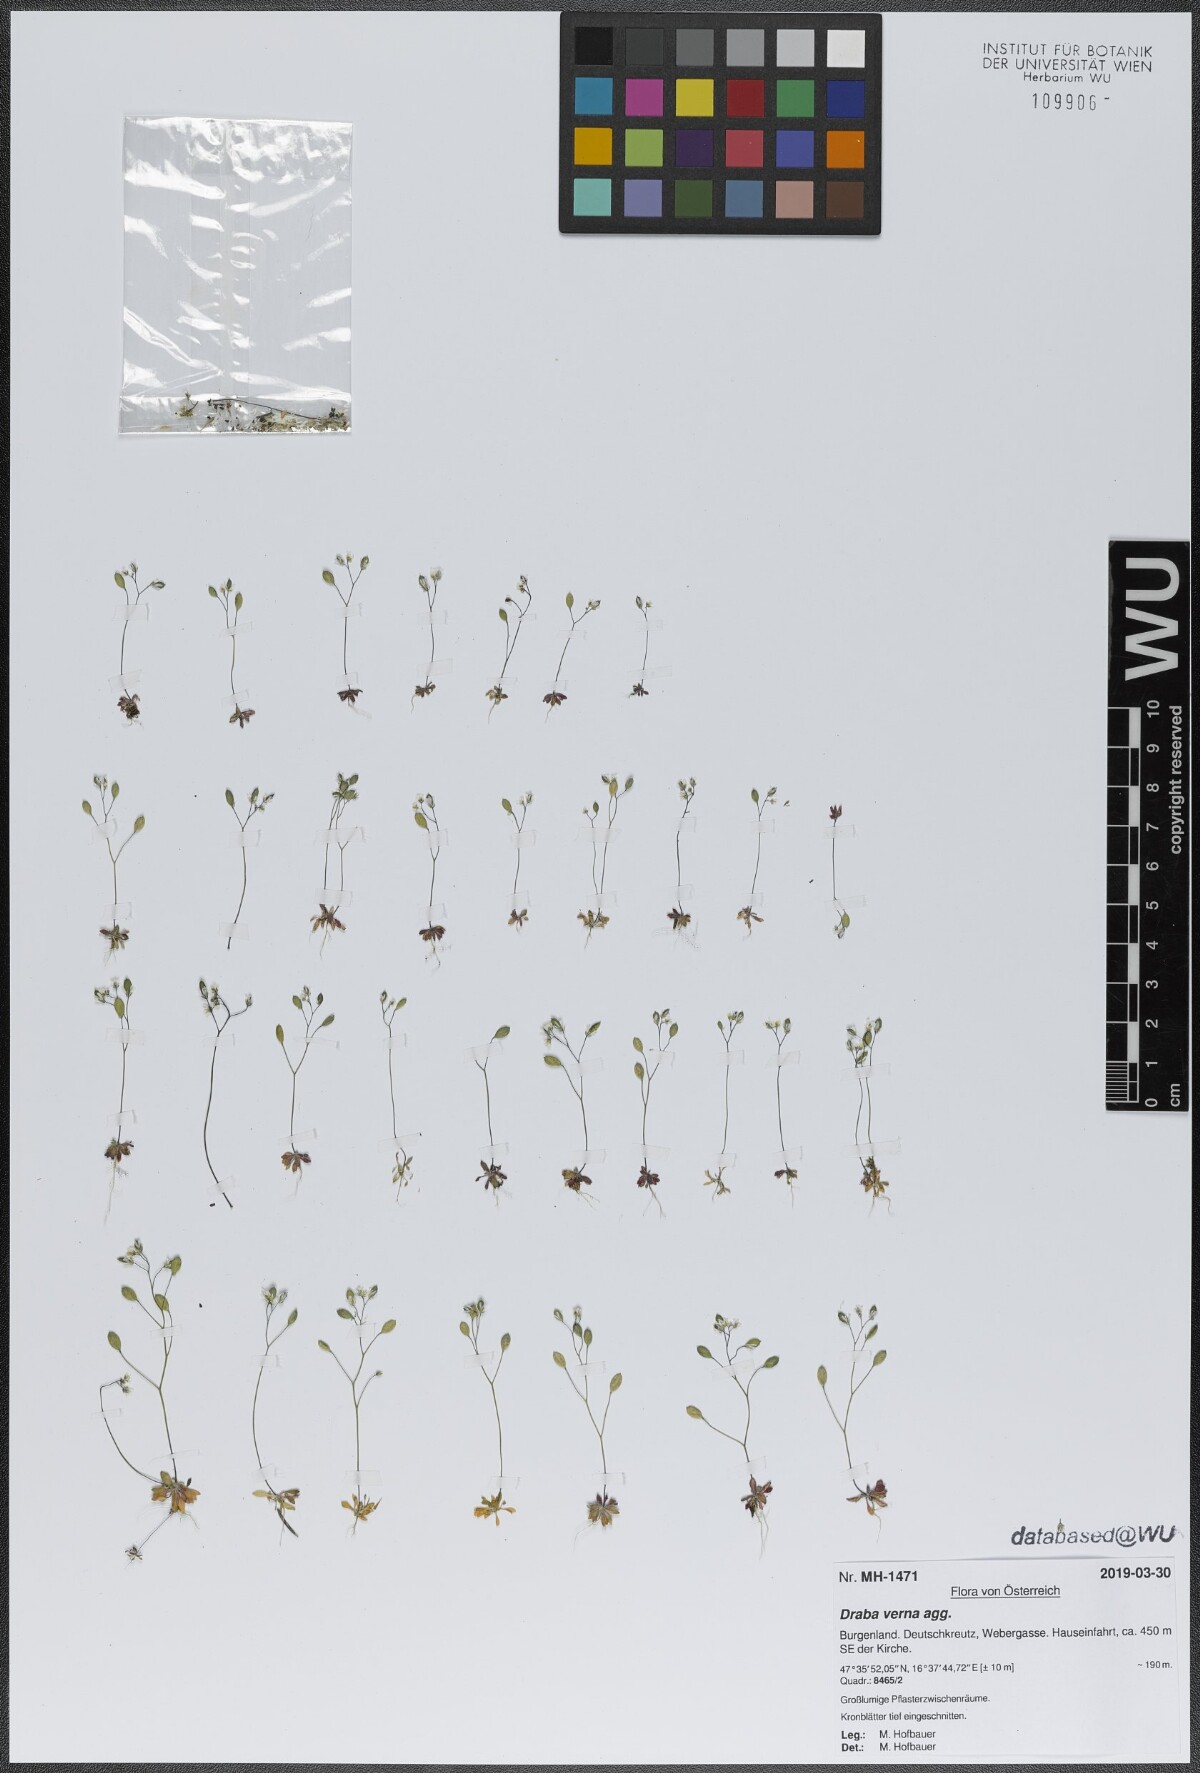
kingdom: Plantae
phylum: Tracheophyta
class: Magnoliopsida
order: Brassicales
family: Brassicaceae
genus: Draba
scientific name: Draba verna
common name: Spring draba
